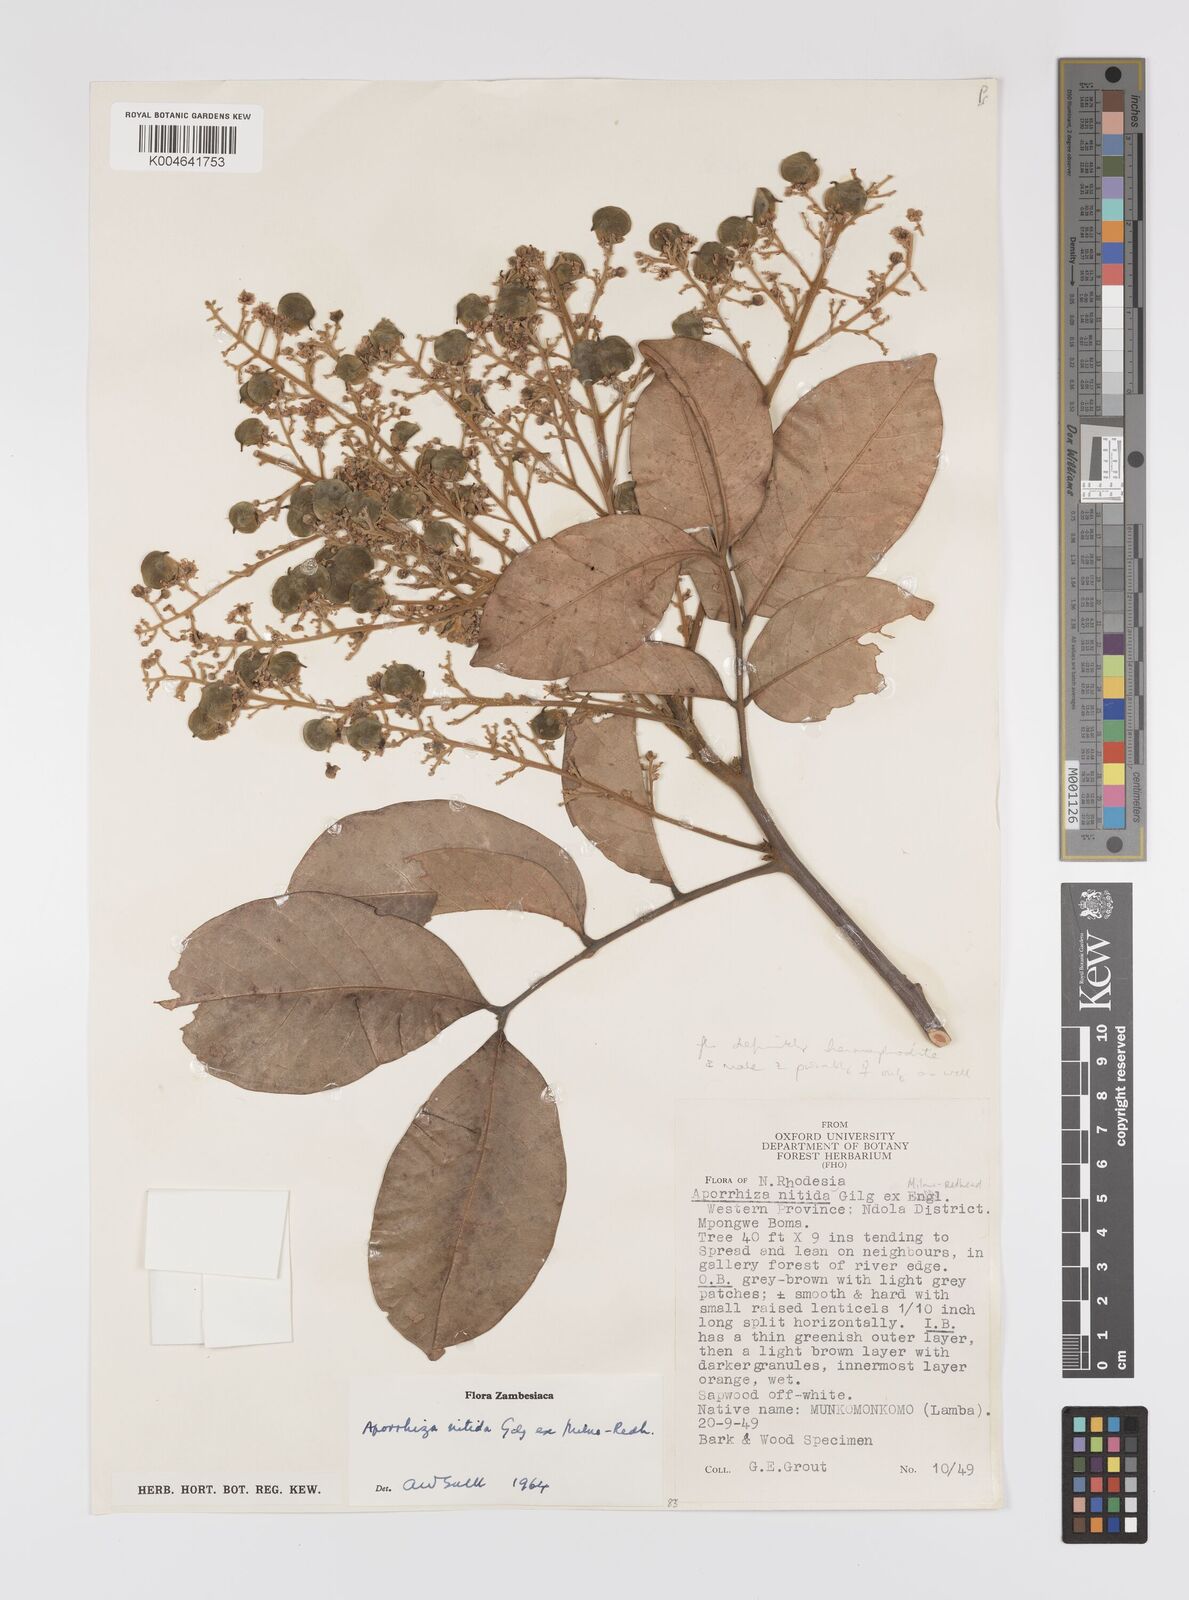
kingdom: Plantae
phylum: Tracheophyta
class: Magnoliopsida
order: Sapindales
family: Sapindaceae
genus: Aporrhiza
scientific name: Aporrhiza paniculata
